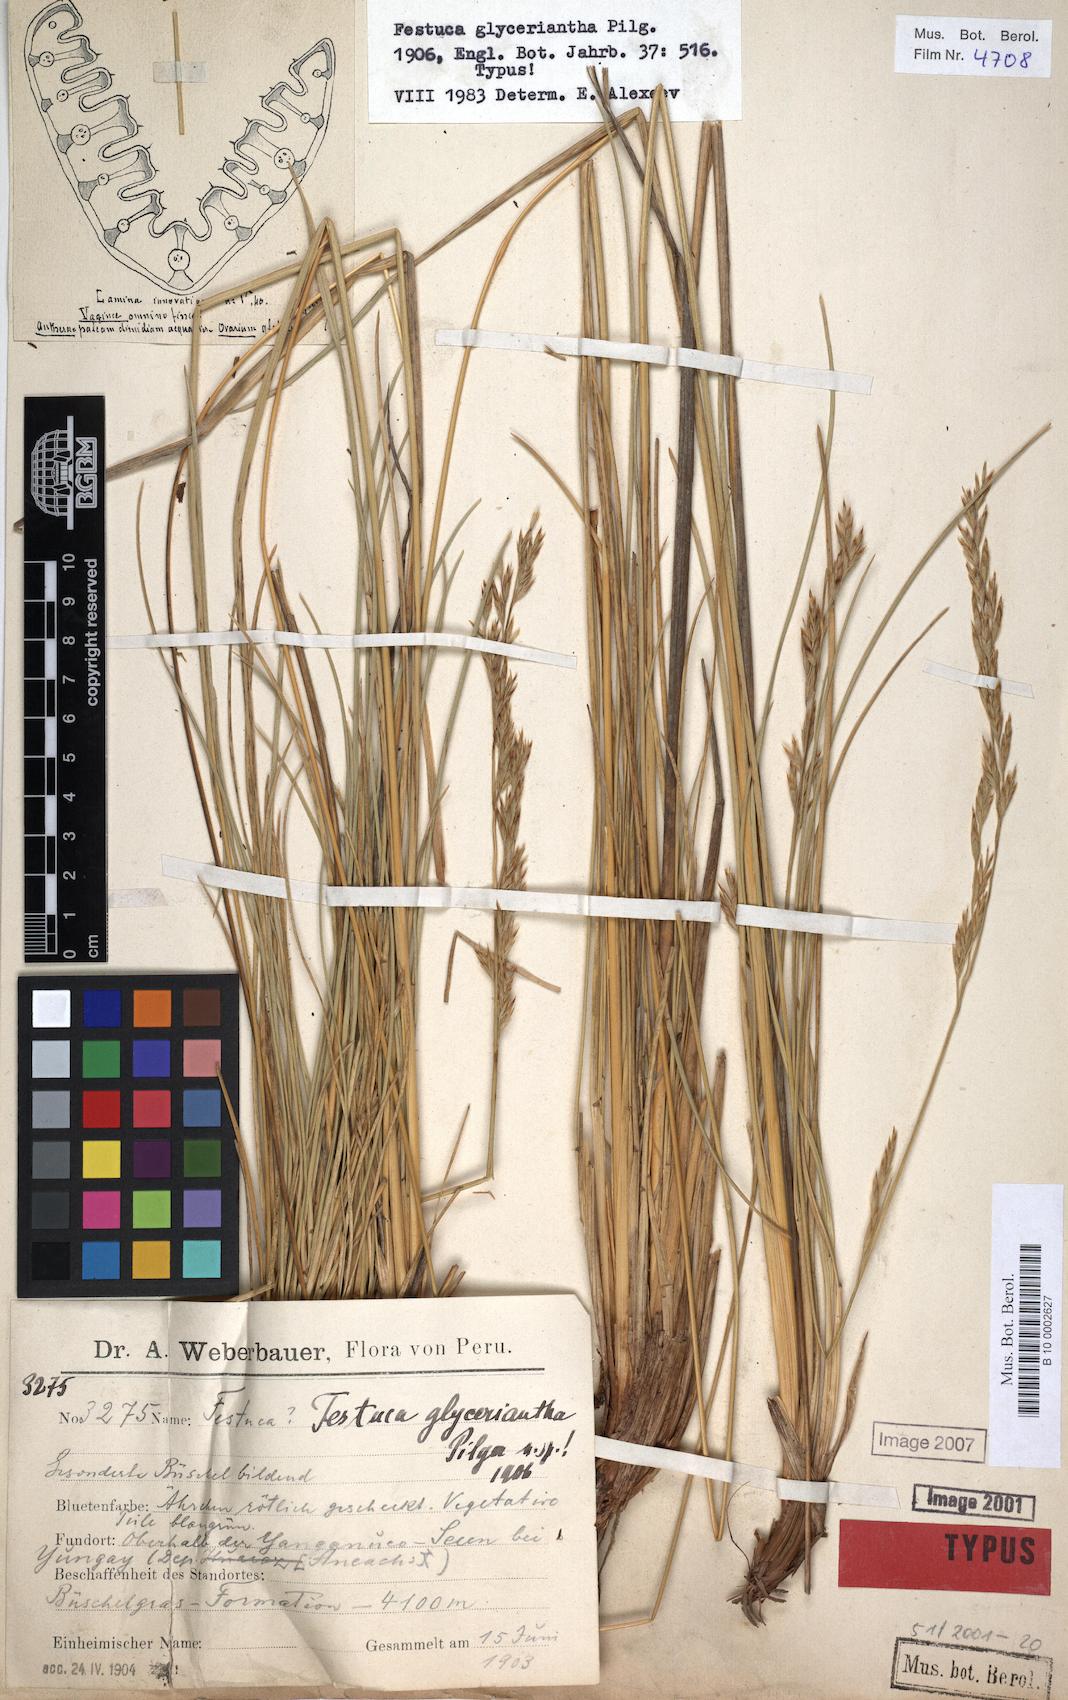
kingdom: Plantae
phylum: Tracheophyta
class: Liliopsida
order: Poales
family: Poaceae
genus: Festuca
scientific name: Festuca glyceriantha
